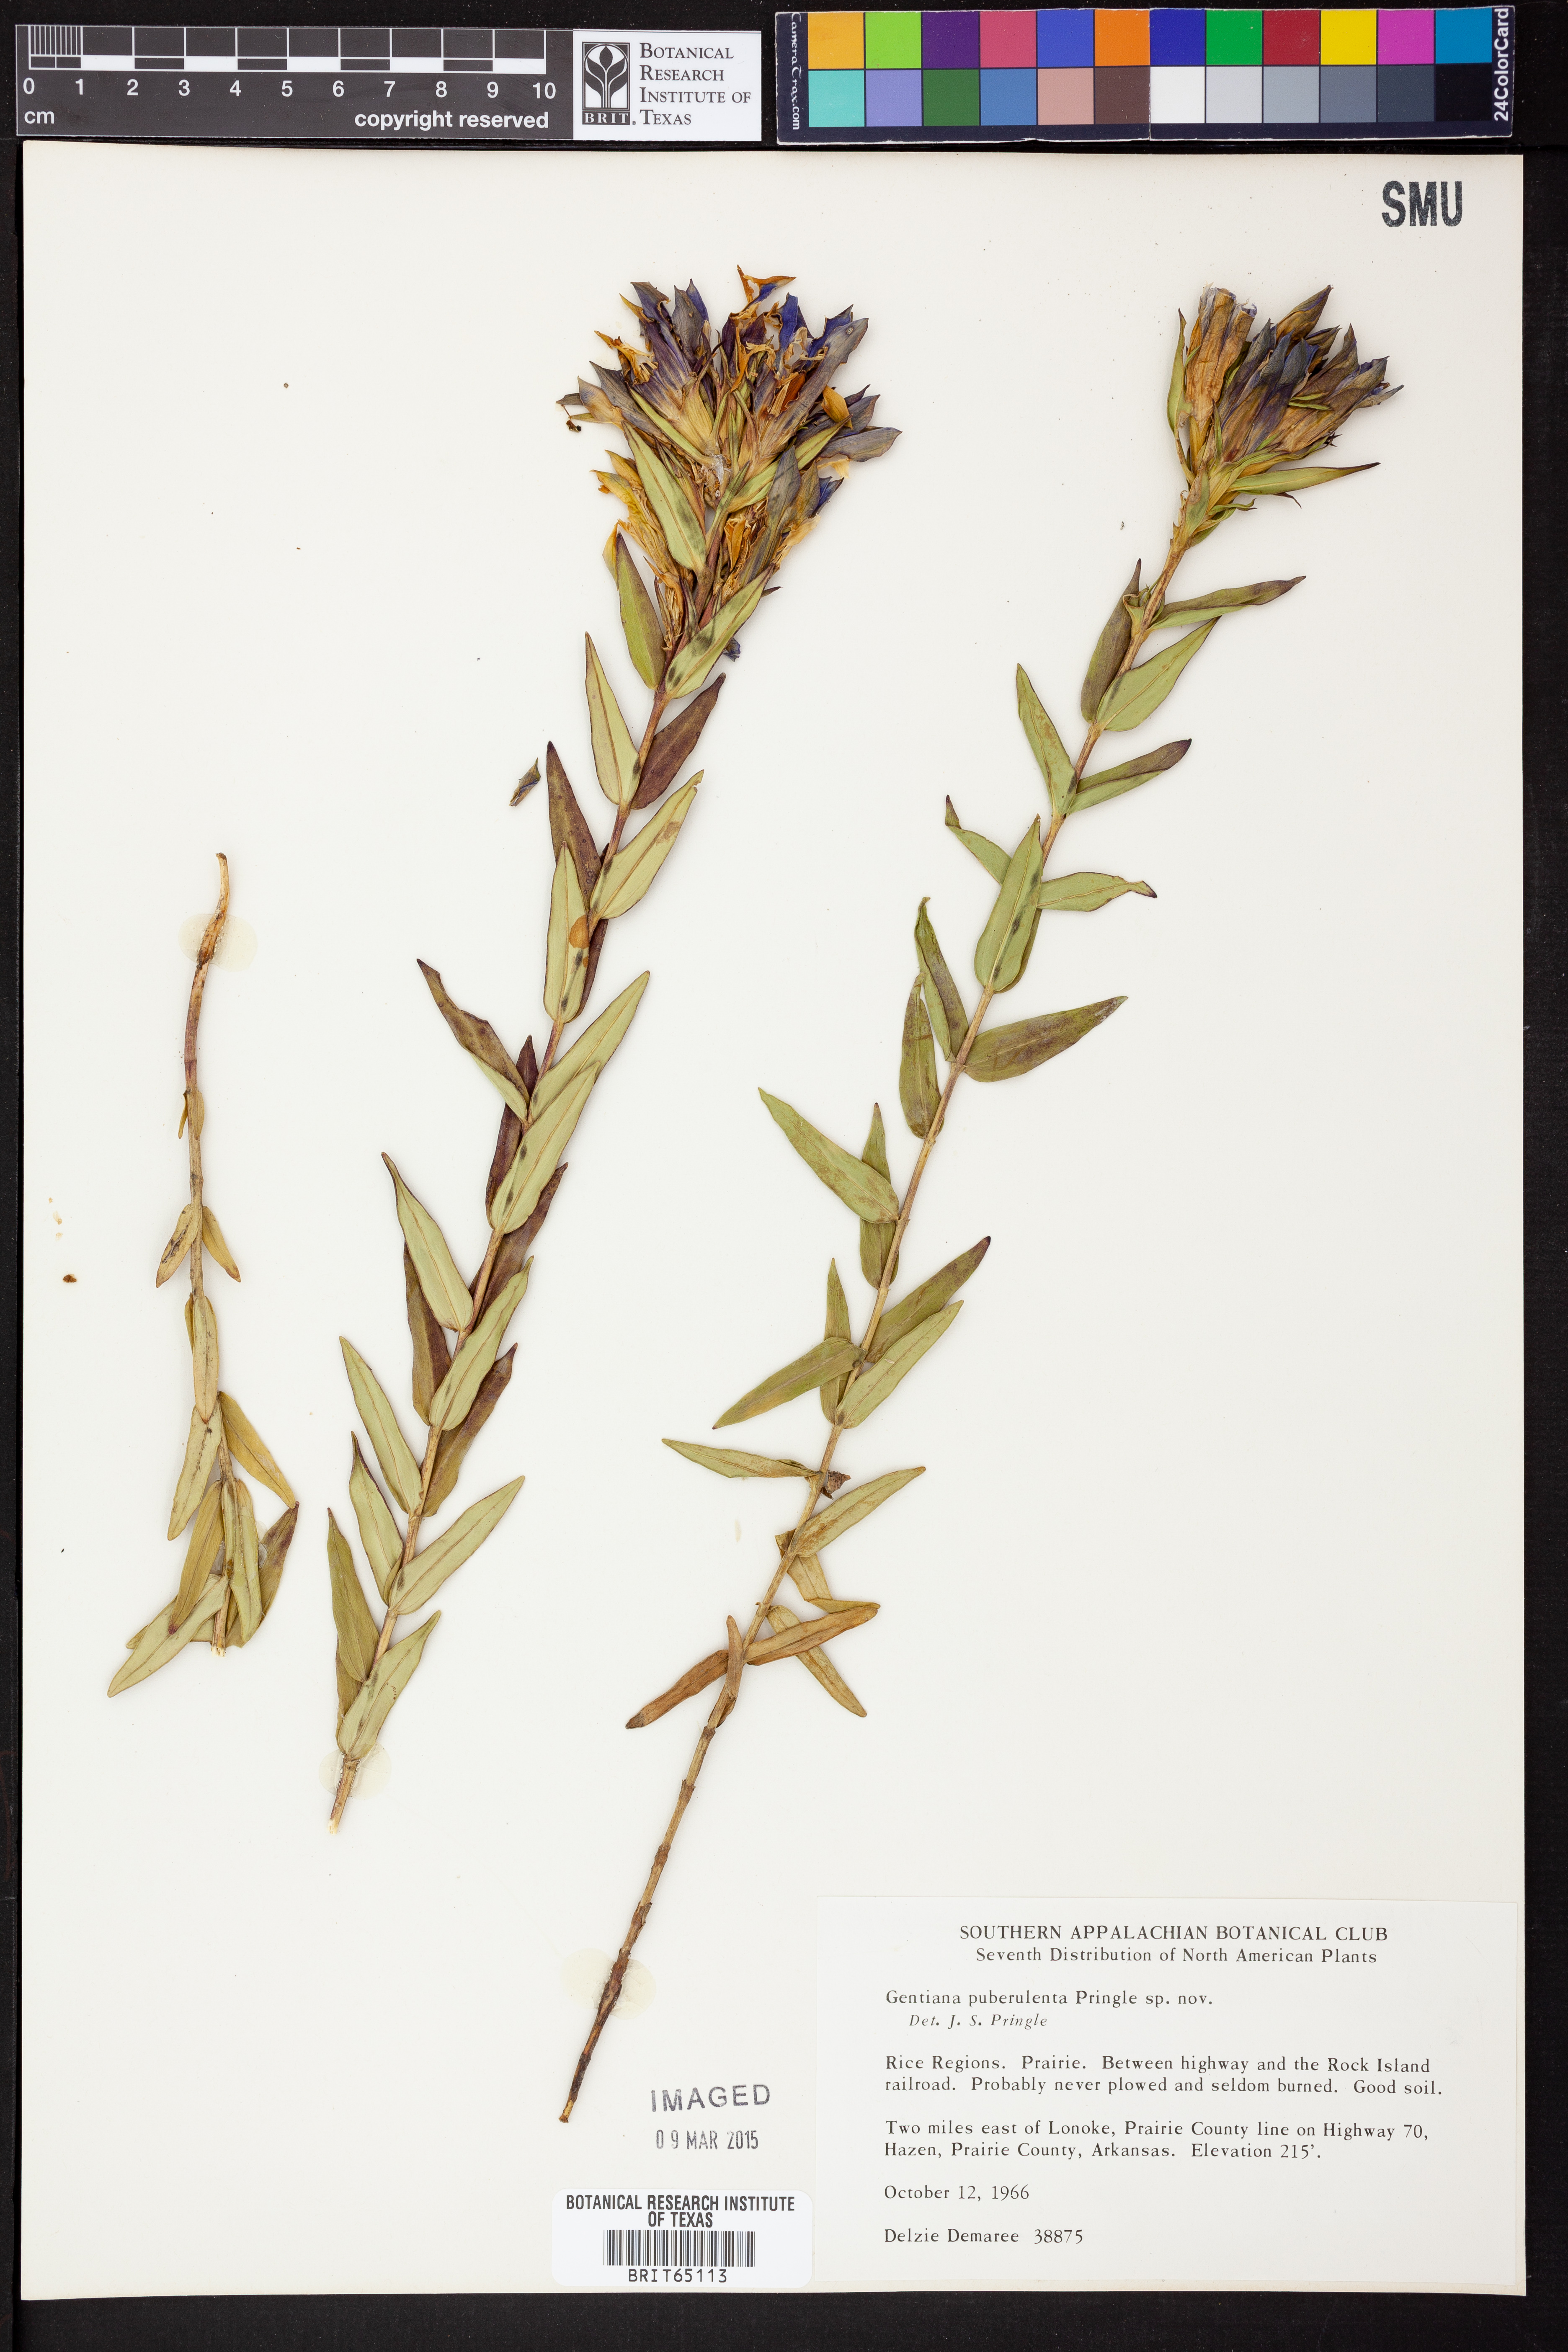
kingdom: Plantae
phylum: Tracheophyta
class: Magnoliopsida
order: Gentianales
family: Gentianaceae
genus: Gentiana
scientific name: Gentiana puberulenta
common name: Downy gentian
